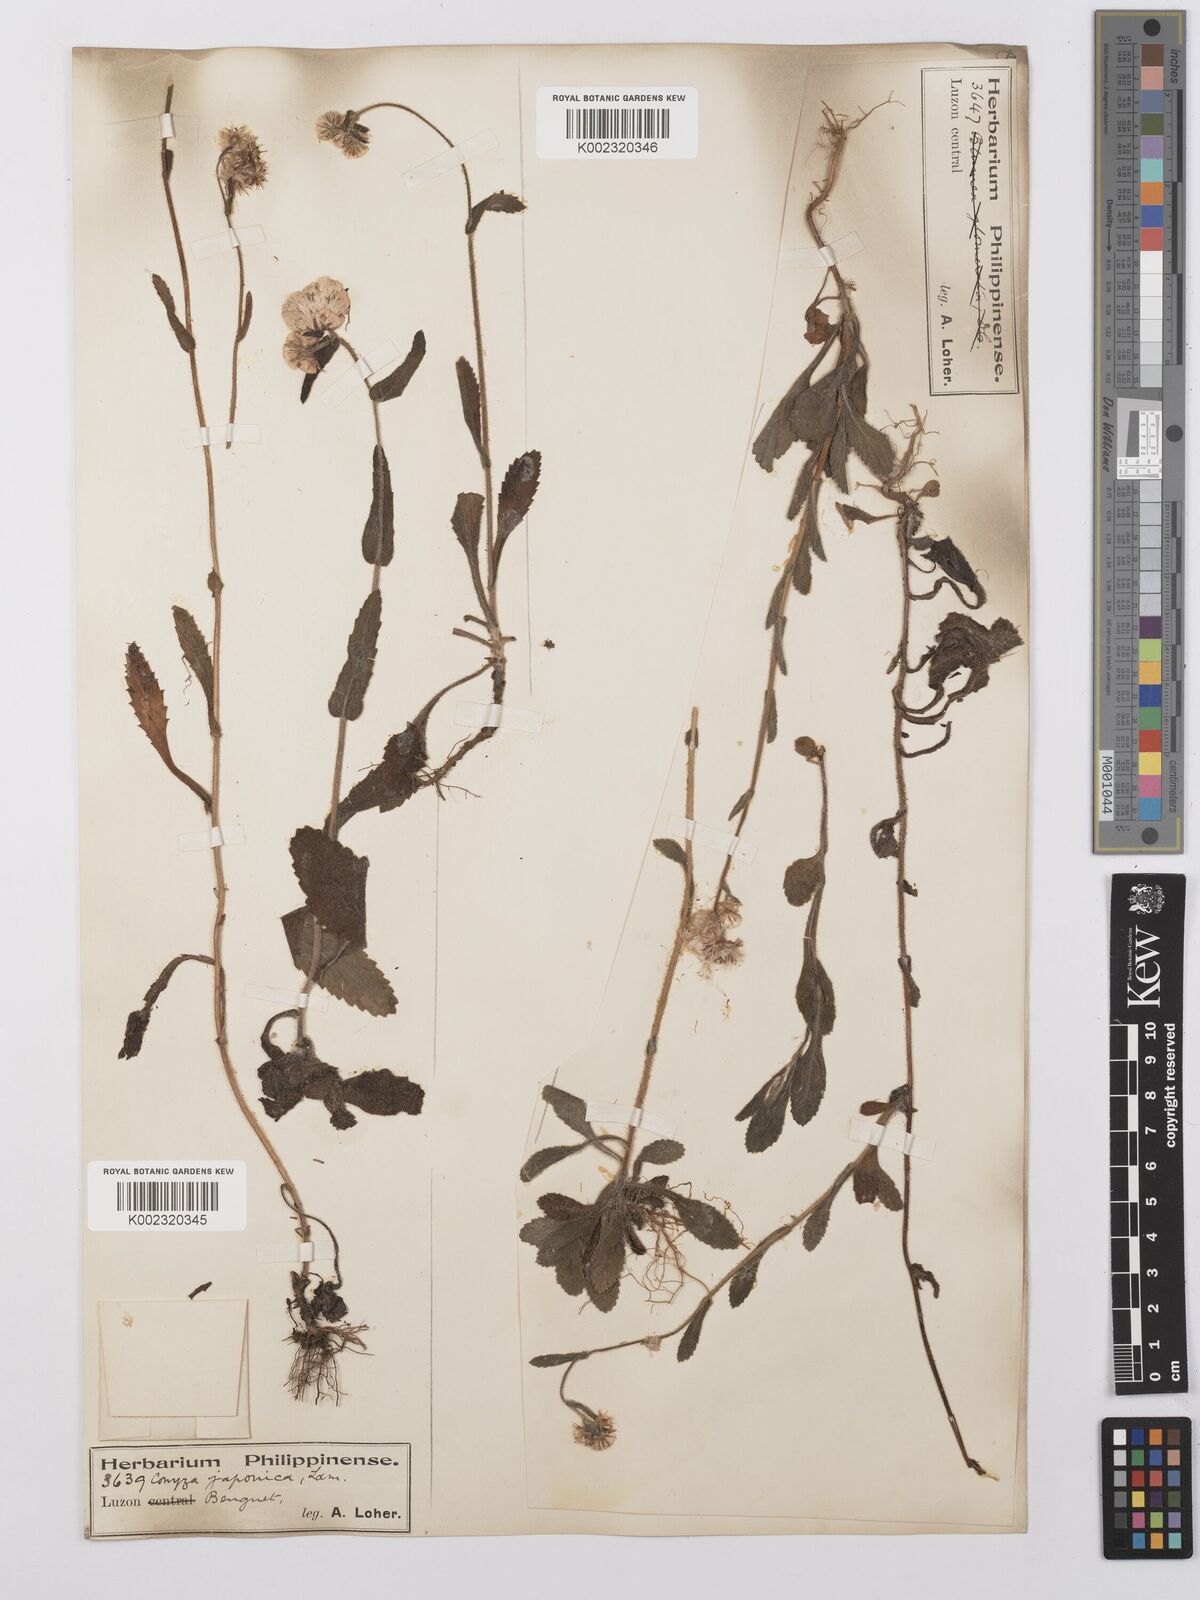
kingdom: Plantae
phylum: Tracheophyta
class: Magnoliopsida
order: Asterales
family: Asteraceae
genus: Eschenbachia
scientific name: Eschenbachia japonica
